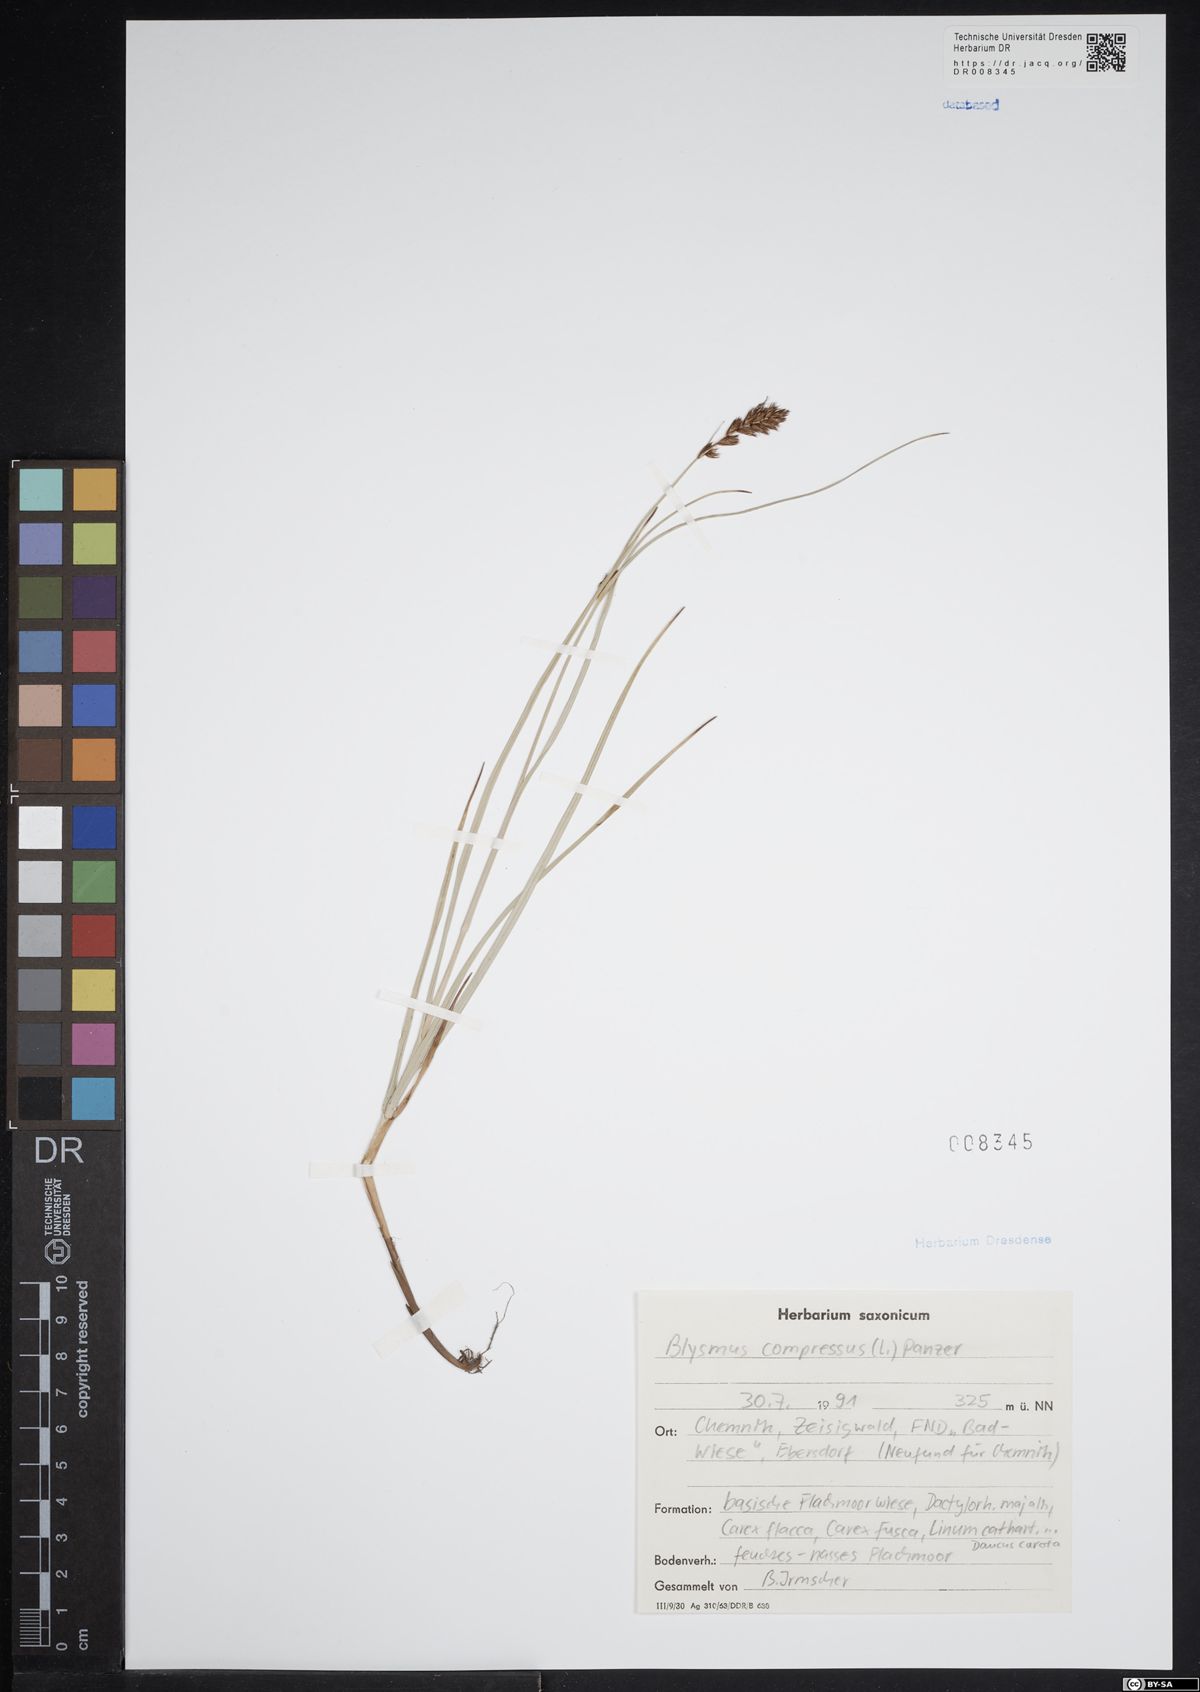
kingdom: Plantae
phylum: Tracheophyta
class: Liliopsida
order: Poales
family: Cyperaceae
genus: Blysmus
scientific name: Blysmus compressus
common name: Flat-sedge
